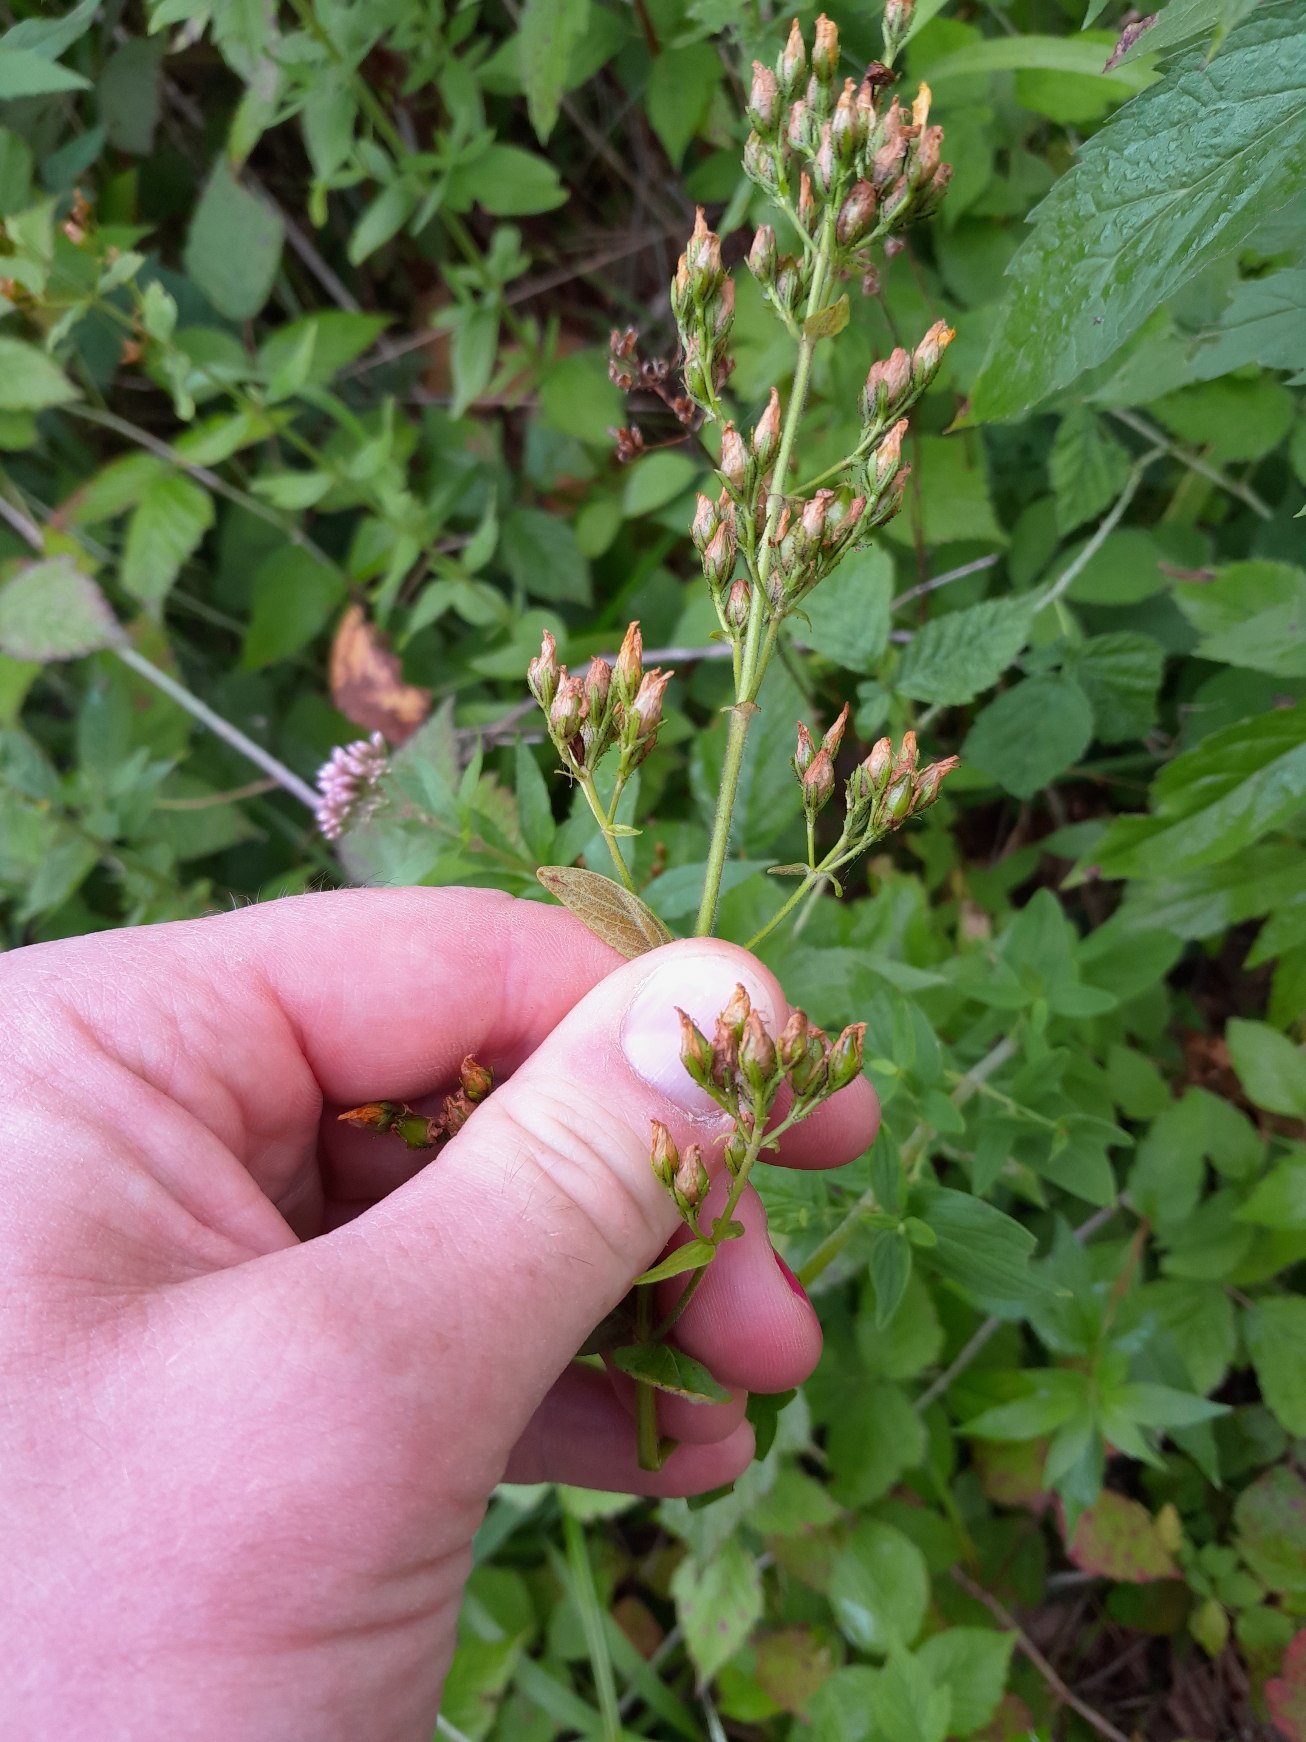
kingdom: Plantae
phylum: Tracheophyta
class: Magnoliopsida
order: Malpighiales
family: Hypericaceae
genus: Hypericum
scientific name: Hypericum hirsutum
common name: Lådden perikon
